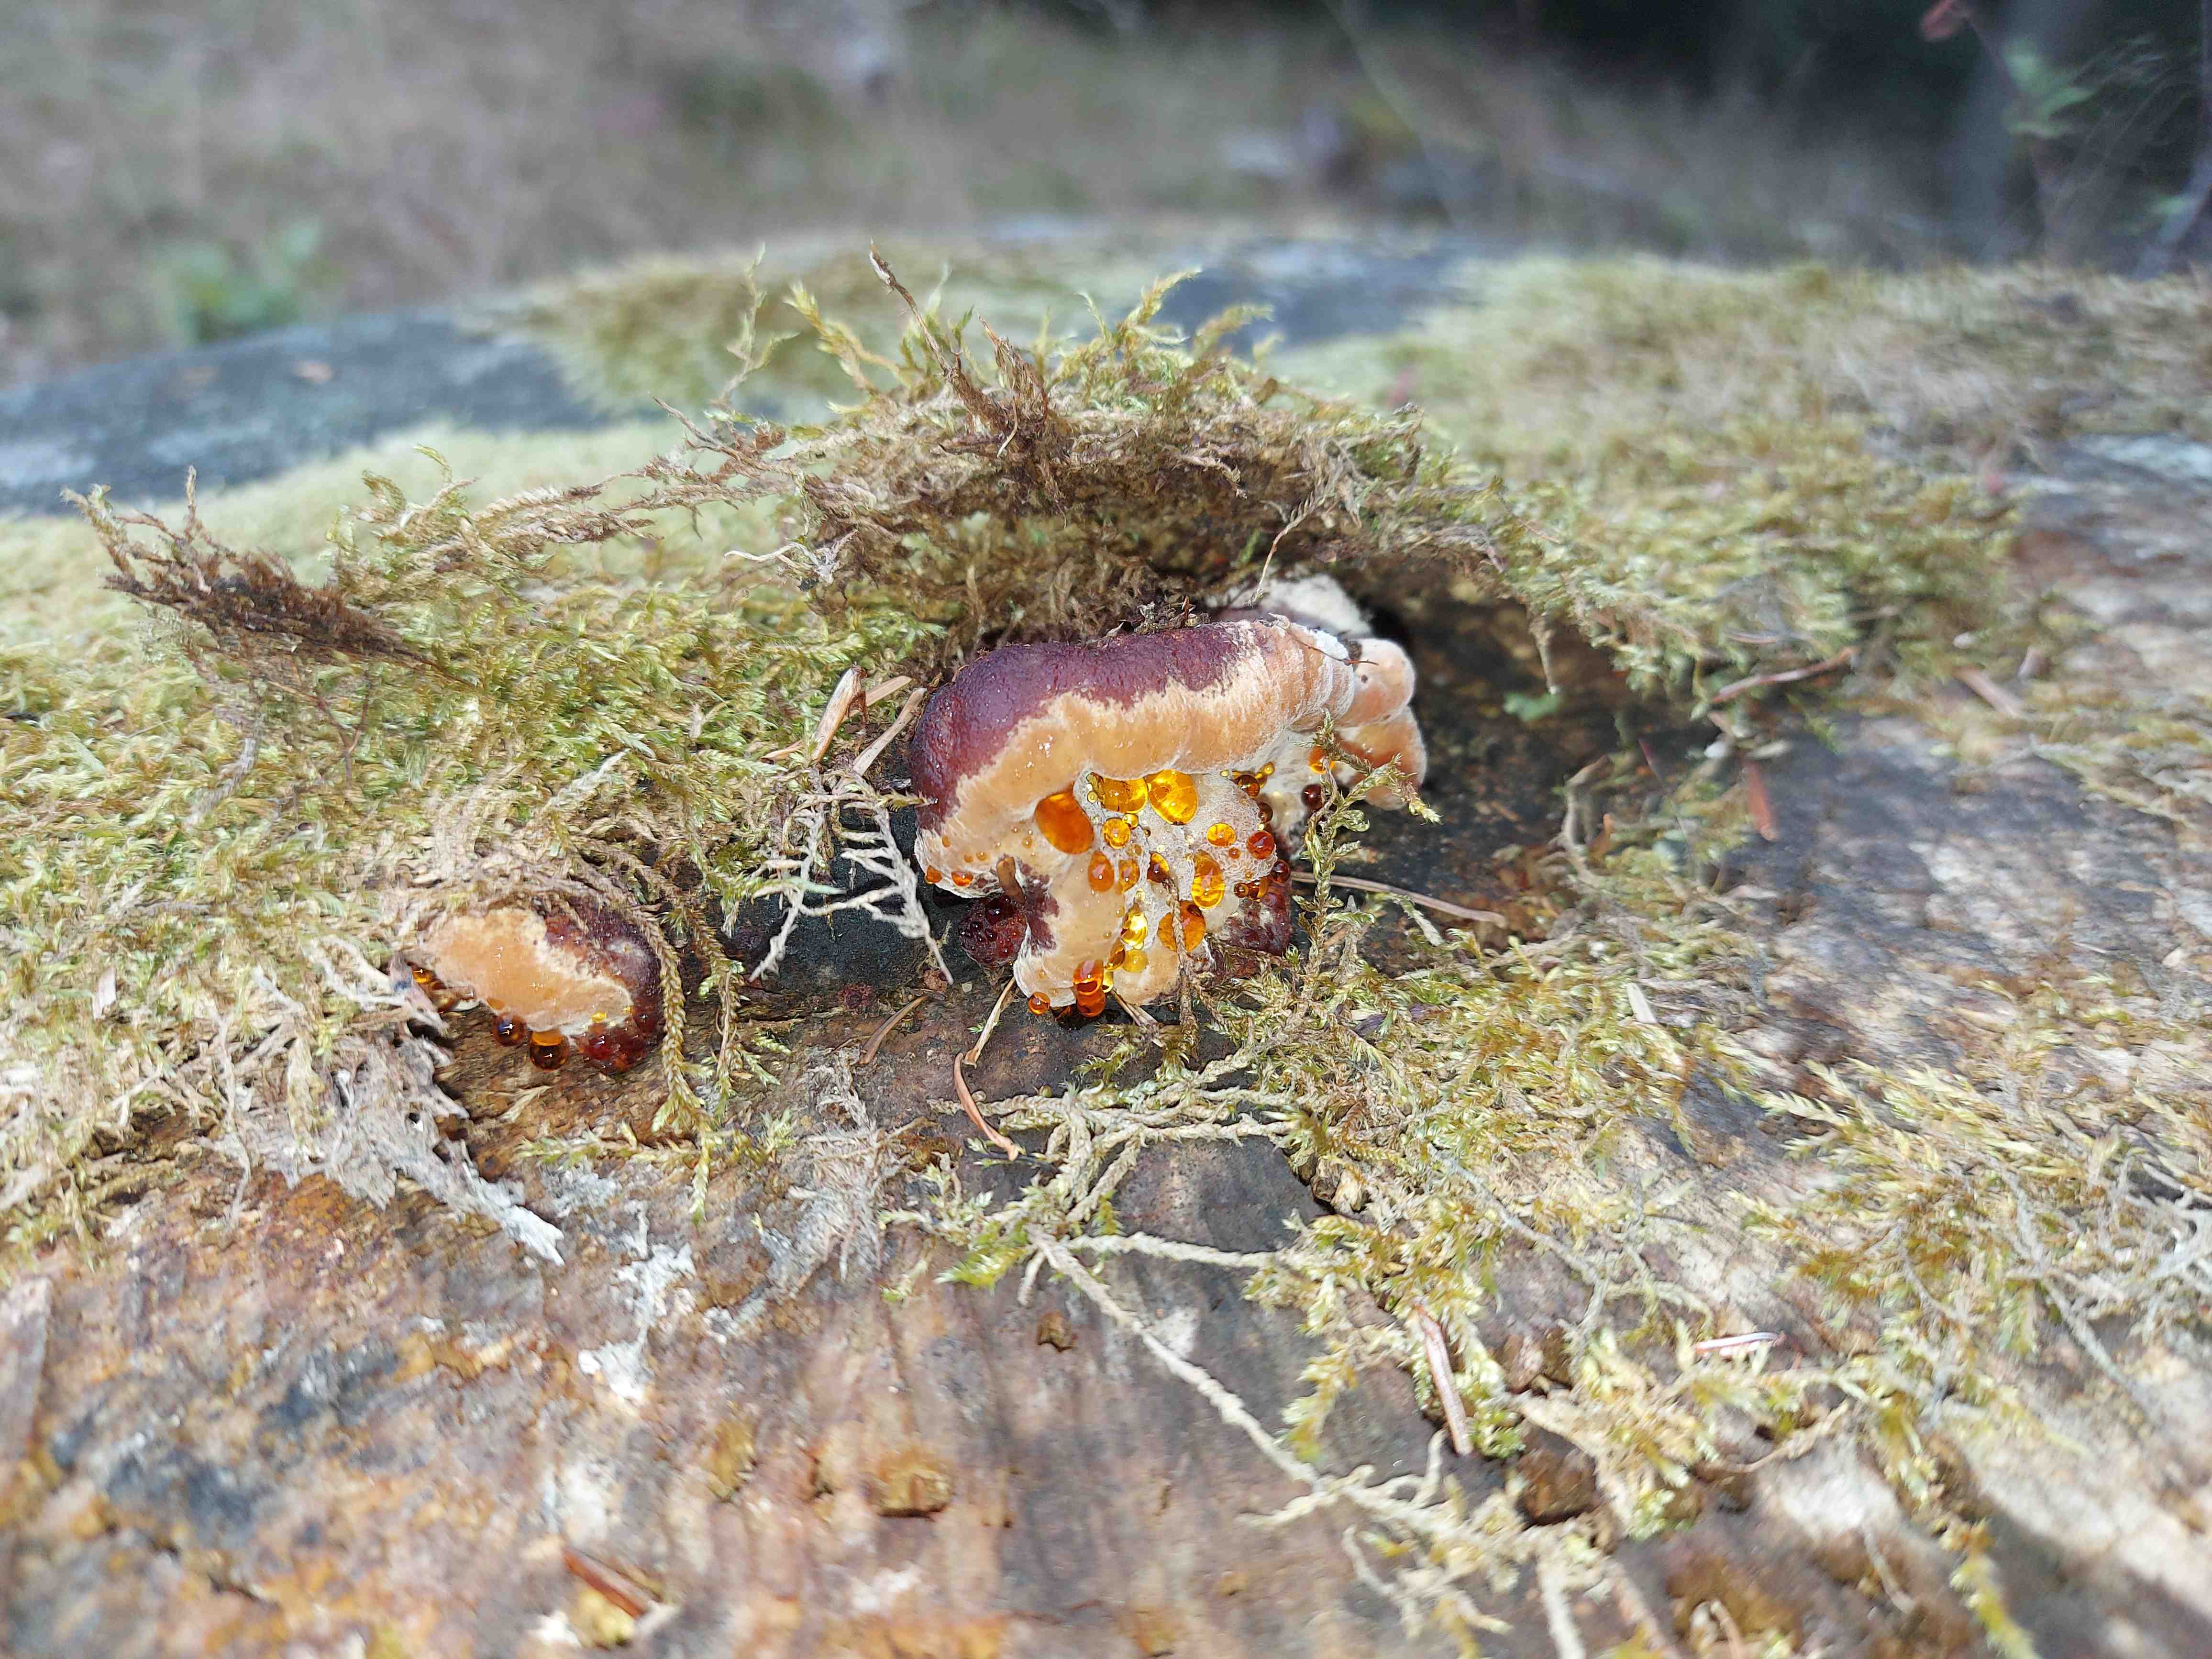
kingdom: Fungi
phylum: Basidiomycota
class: Agaricomycetes
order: Polyporales
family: Ischnodermataceae
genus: Ischnoderma
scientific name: Ischnoderma benzoinum
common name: gran-tjæreporesvamp
